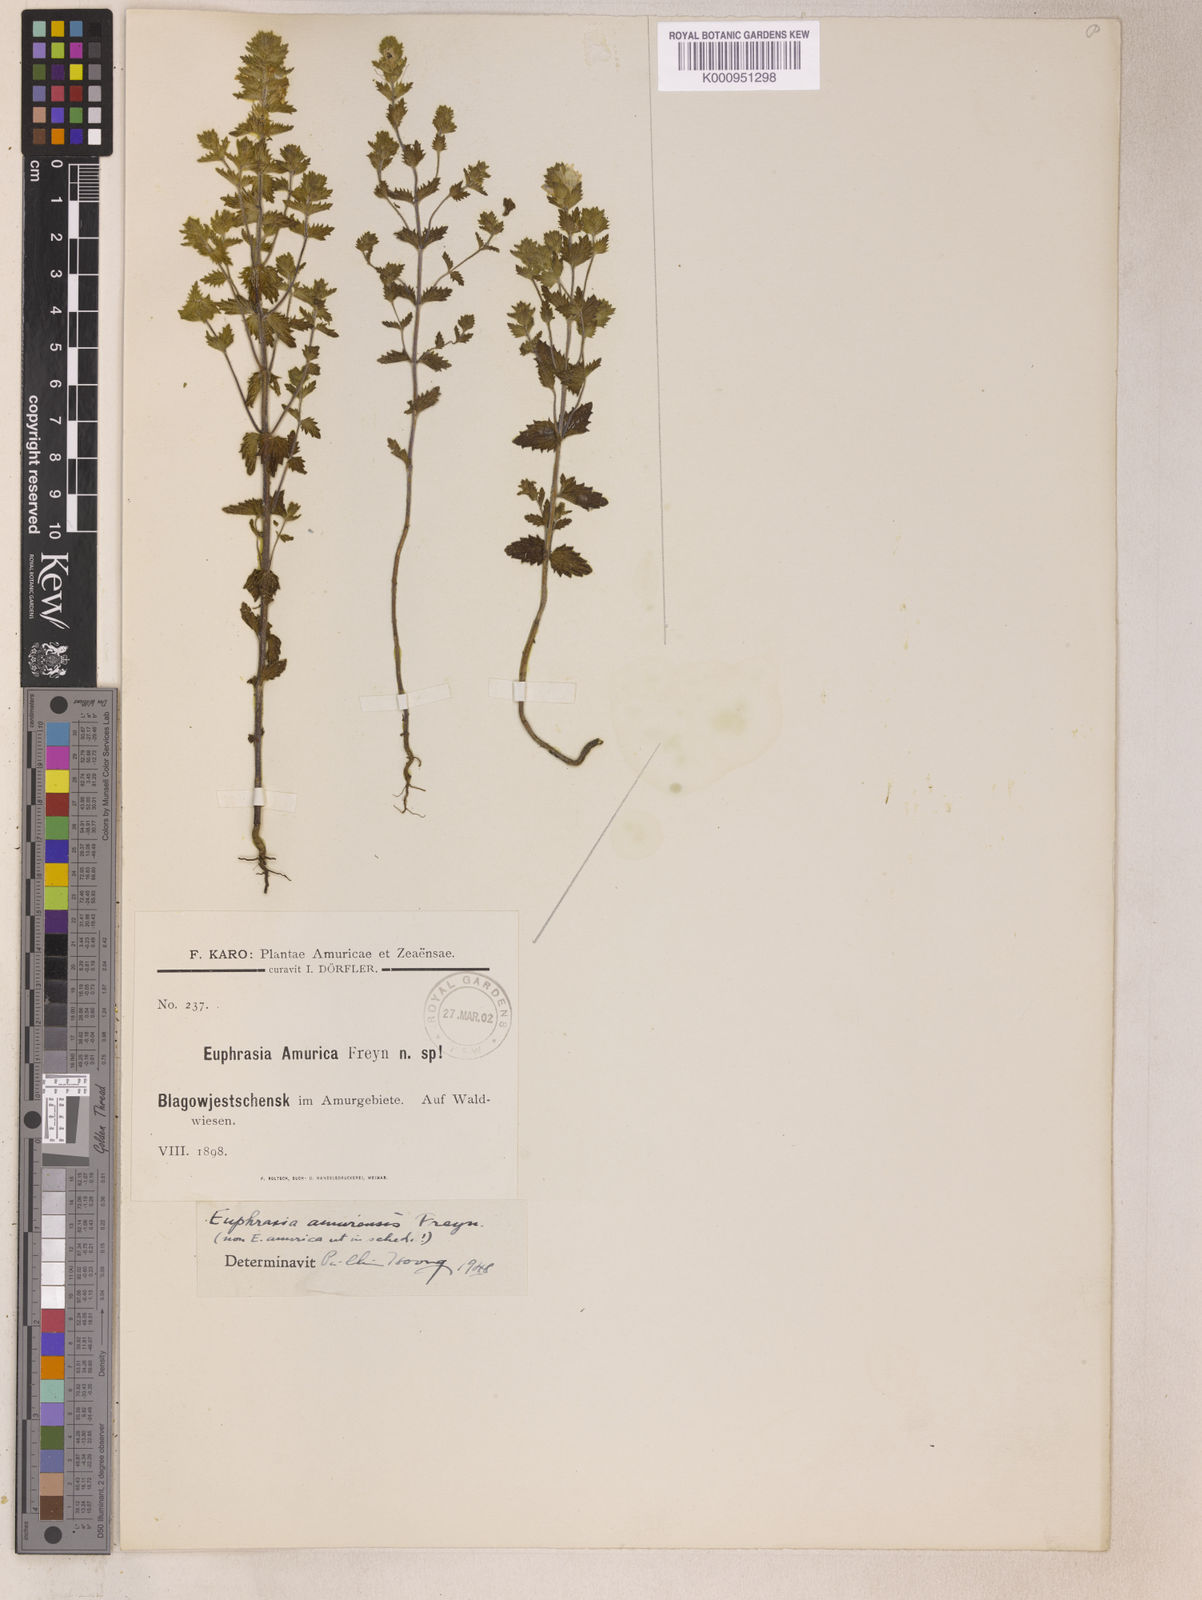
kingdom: Plantae
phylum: Tracheophyta
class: Magnoliopsida
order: Lamiales
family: Orobanchaceae
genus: Euphrasia
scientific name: Euphrasia
